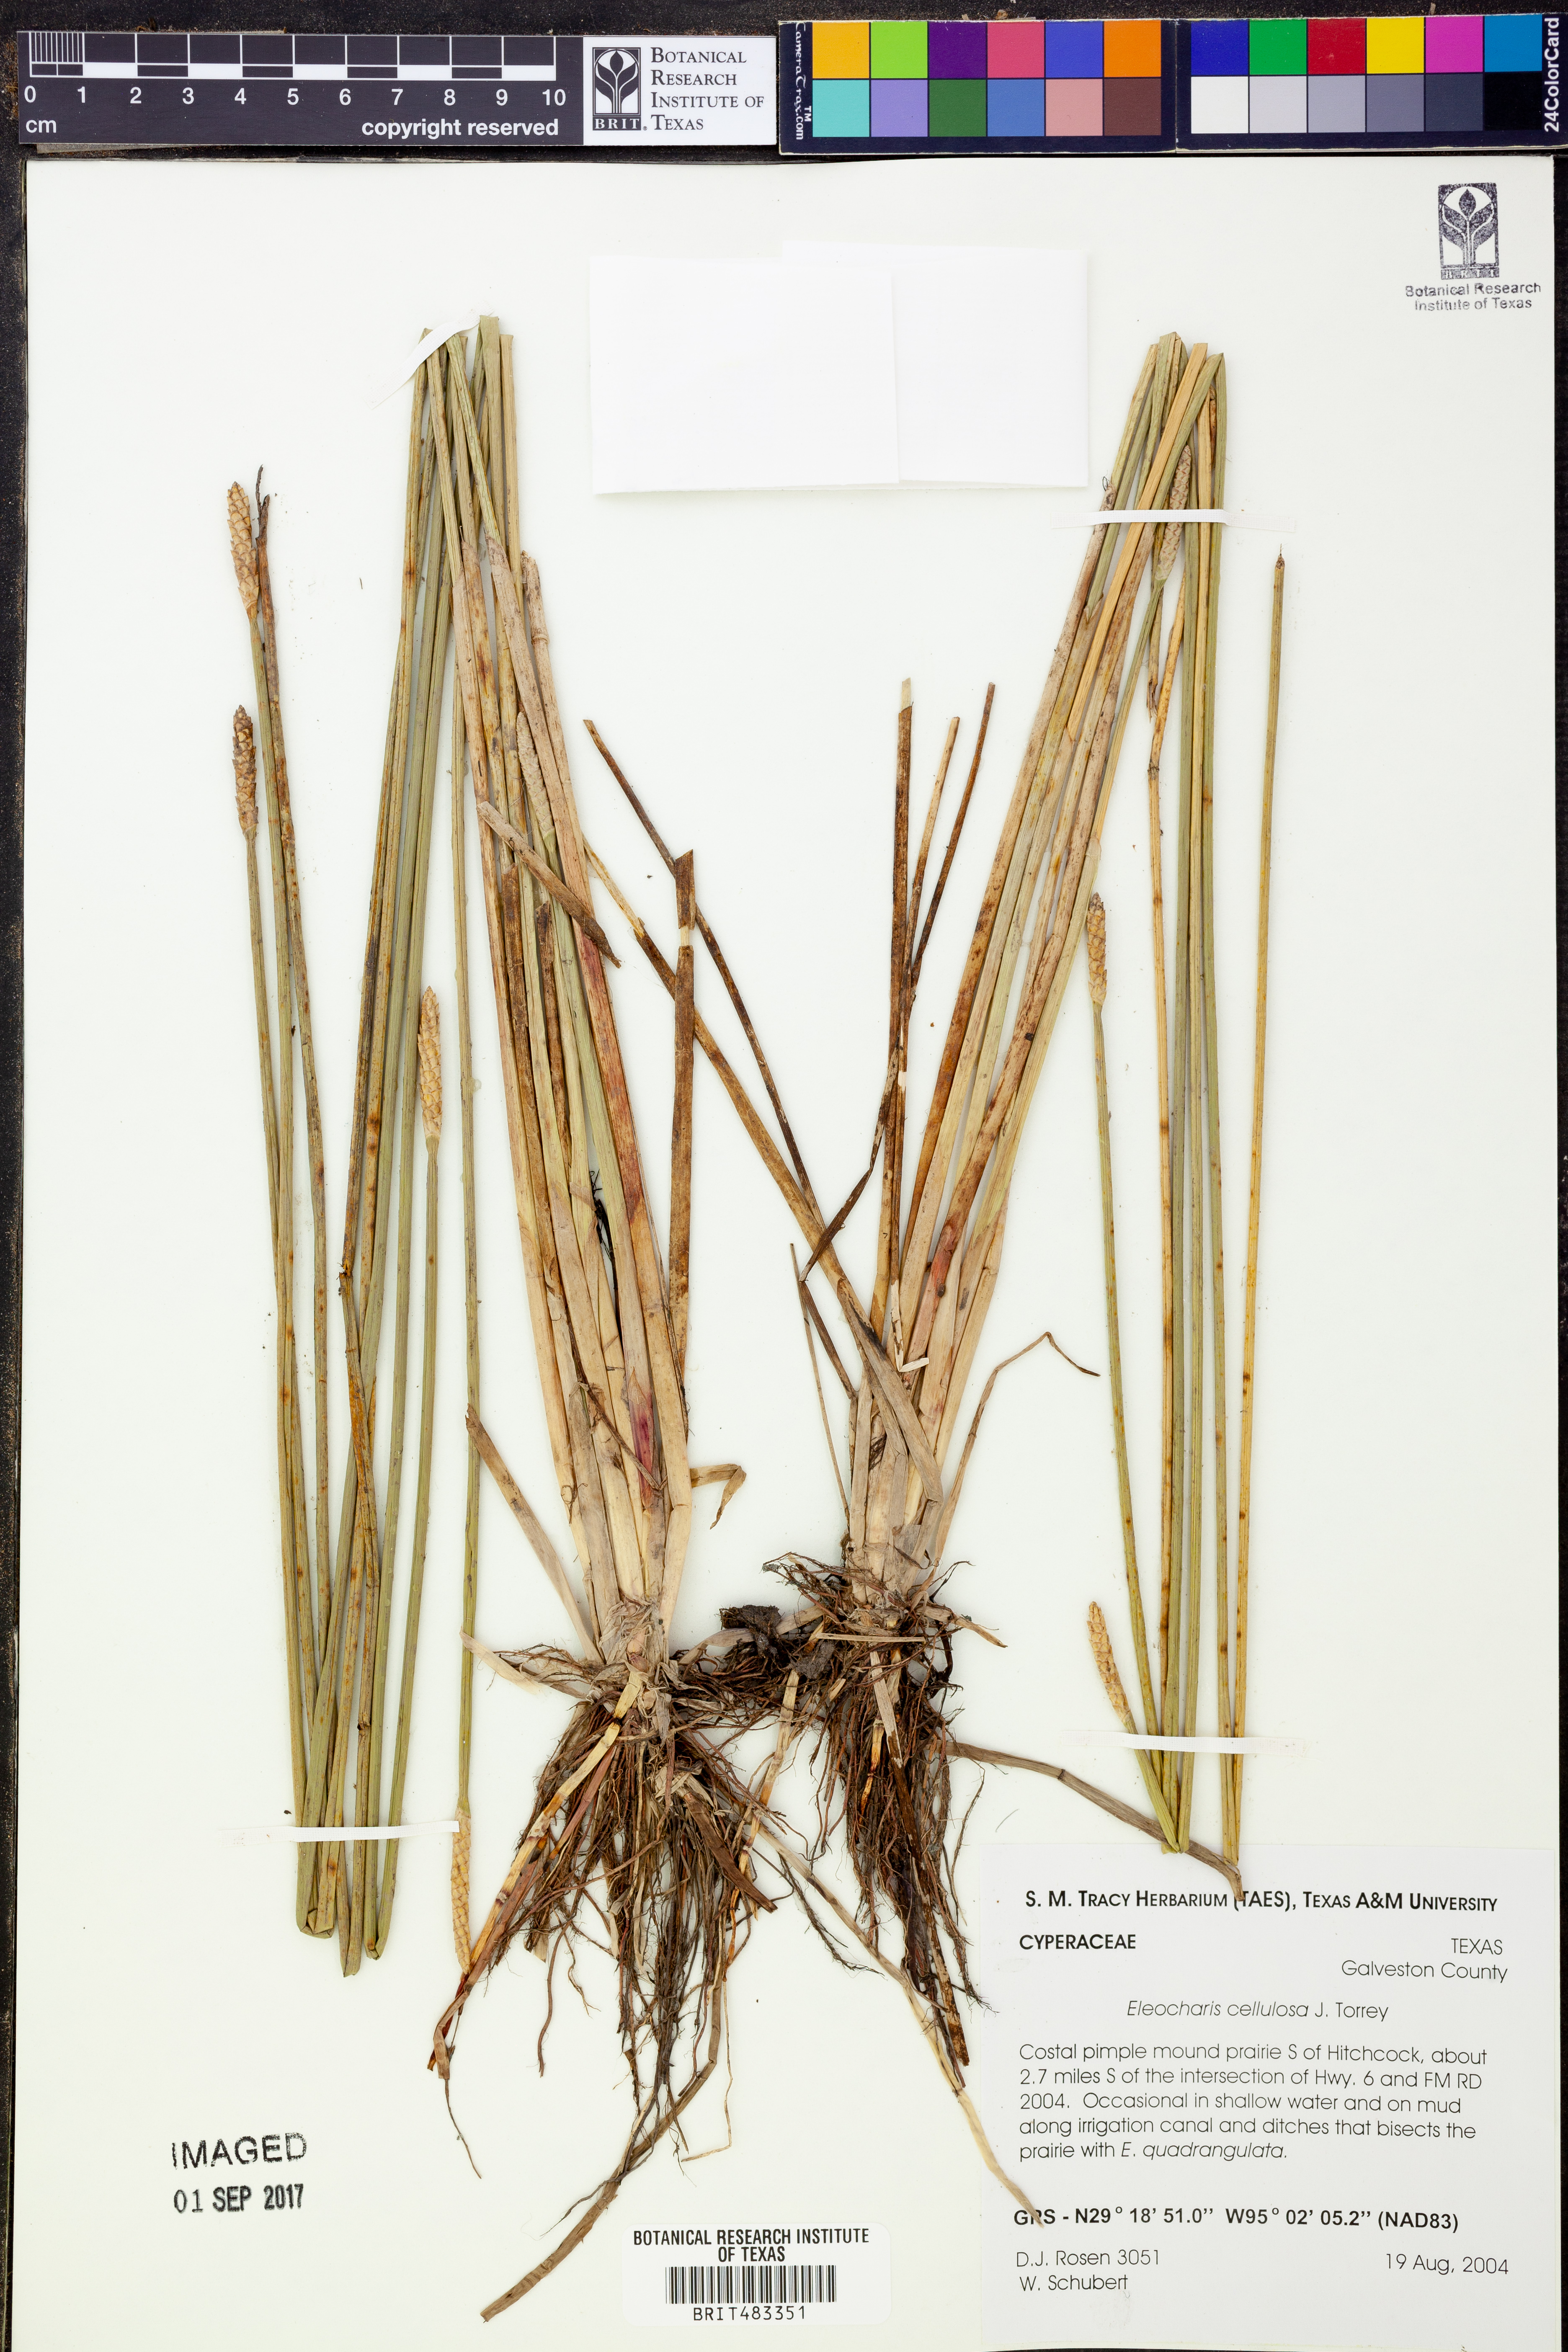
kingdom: Plantae
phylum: Tracheophyta
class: Liliopsida
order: Poales
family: Cyperaceae
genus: Eleocharis
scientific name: Eleocharis cellulosa
